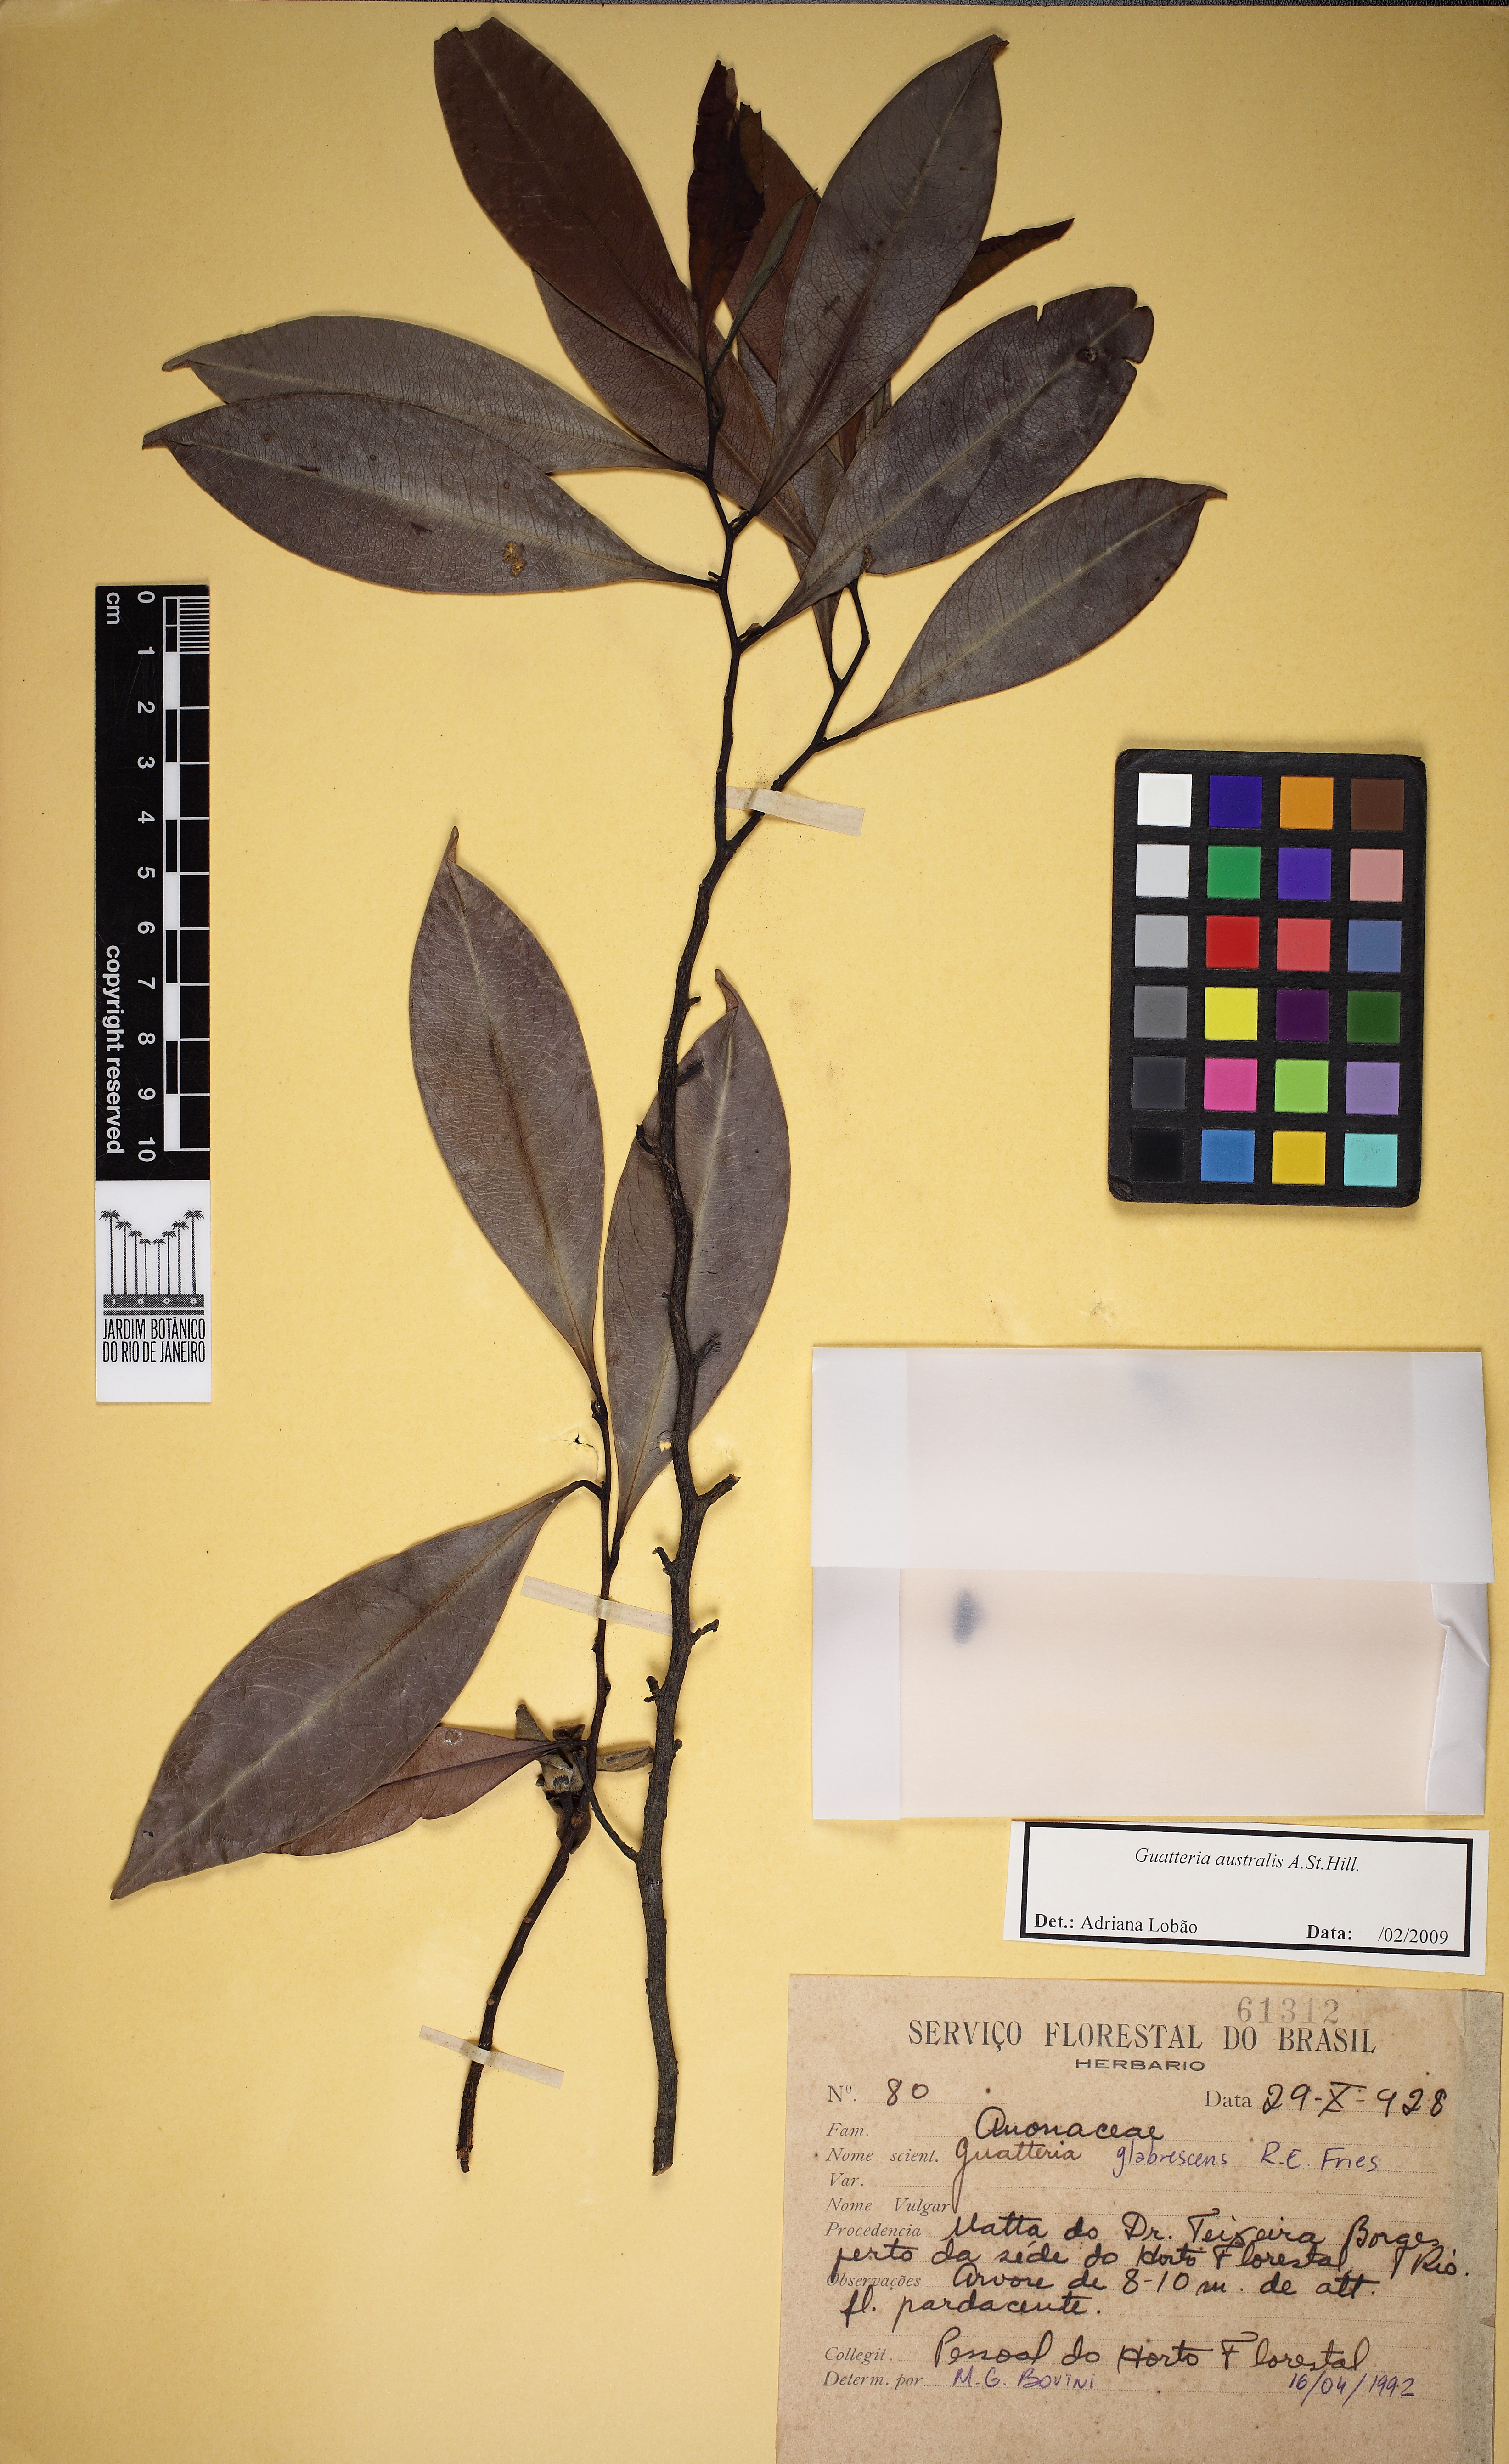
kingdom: Plantae
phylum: Tracheophyta
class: Magnoliopsida
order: Magnoliales
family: Annonaceae
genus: Guatteria
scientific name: Guatteria australis
